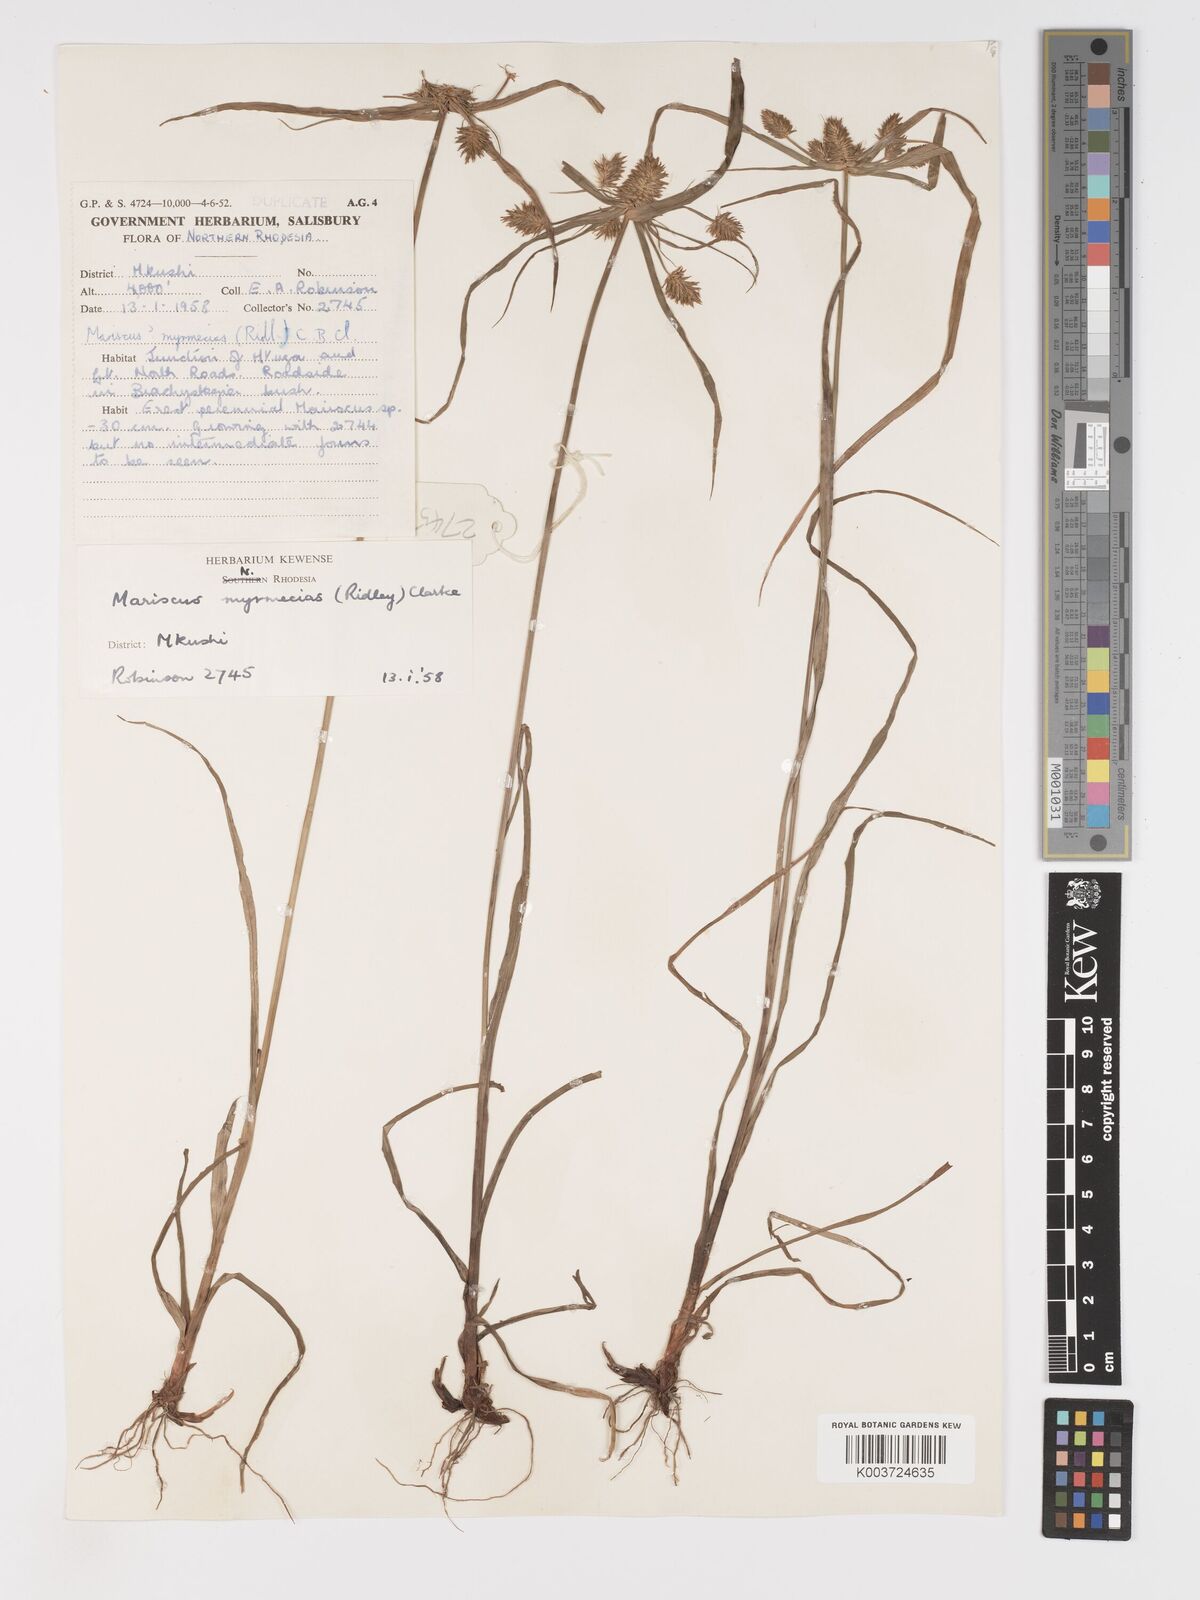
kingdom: Plantae
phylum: Tracheophyta
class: Liliopsida
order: Poales
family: Cyperaceae
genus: Cyperus
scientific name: Cyperus myrmecias
